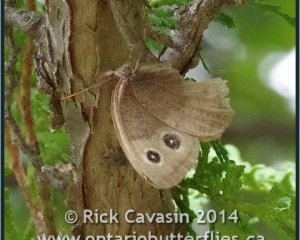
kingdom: Animalia
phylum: Arthropoda
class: Insecta
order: Lepidoptera
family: Nymphalidae
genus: Cercyonis
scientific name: Cercyonis pegala
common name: Common Wood-Nymph
